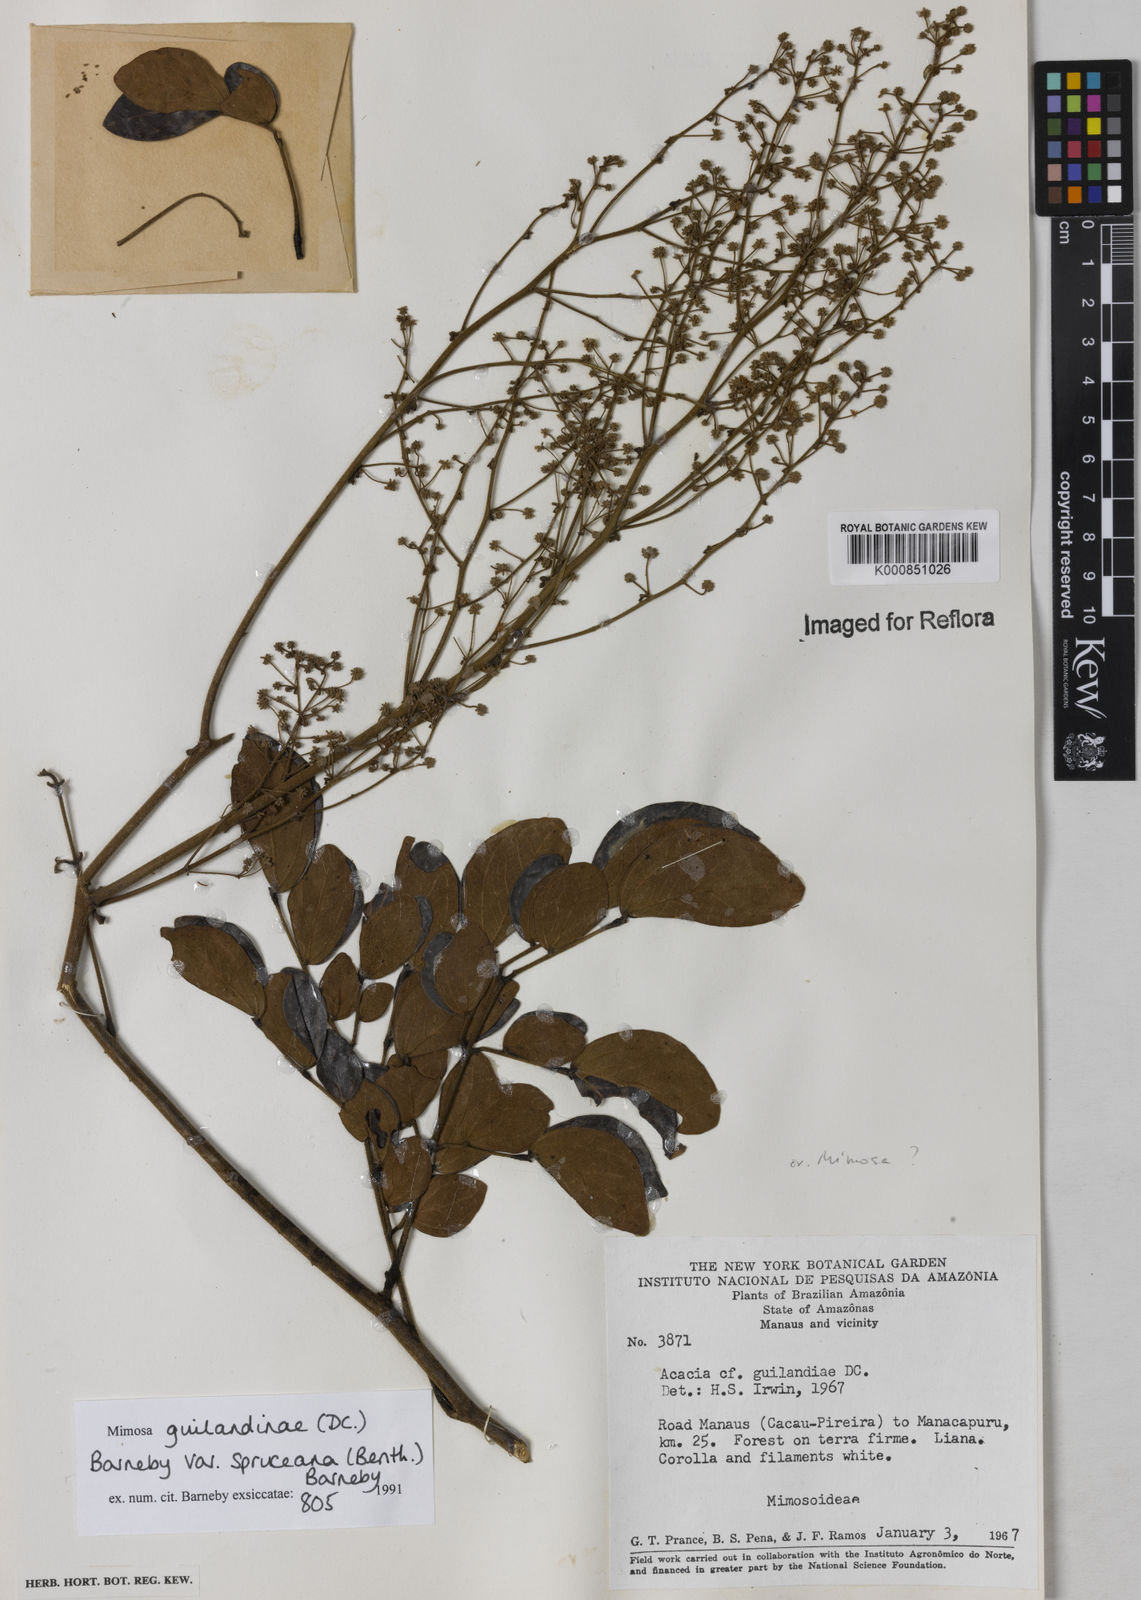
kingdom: Plantae
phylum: Tracheophyta
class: Magnoliopsida
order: Fabales
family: Fabaceae
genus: Mimosa
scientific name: Mimosa guilandinae
